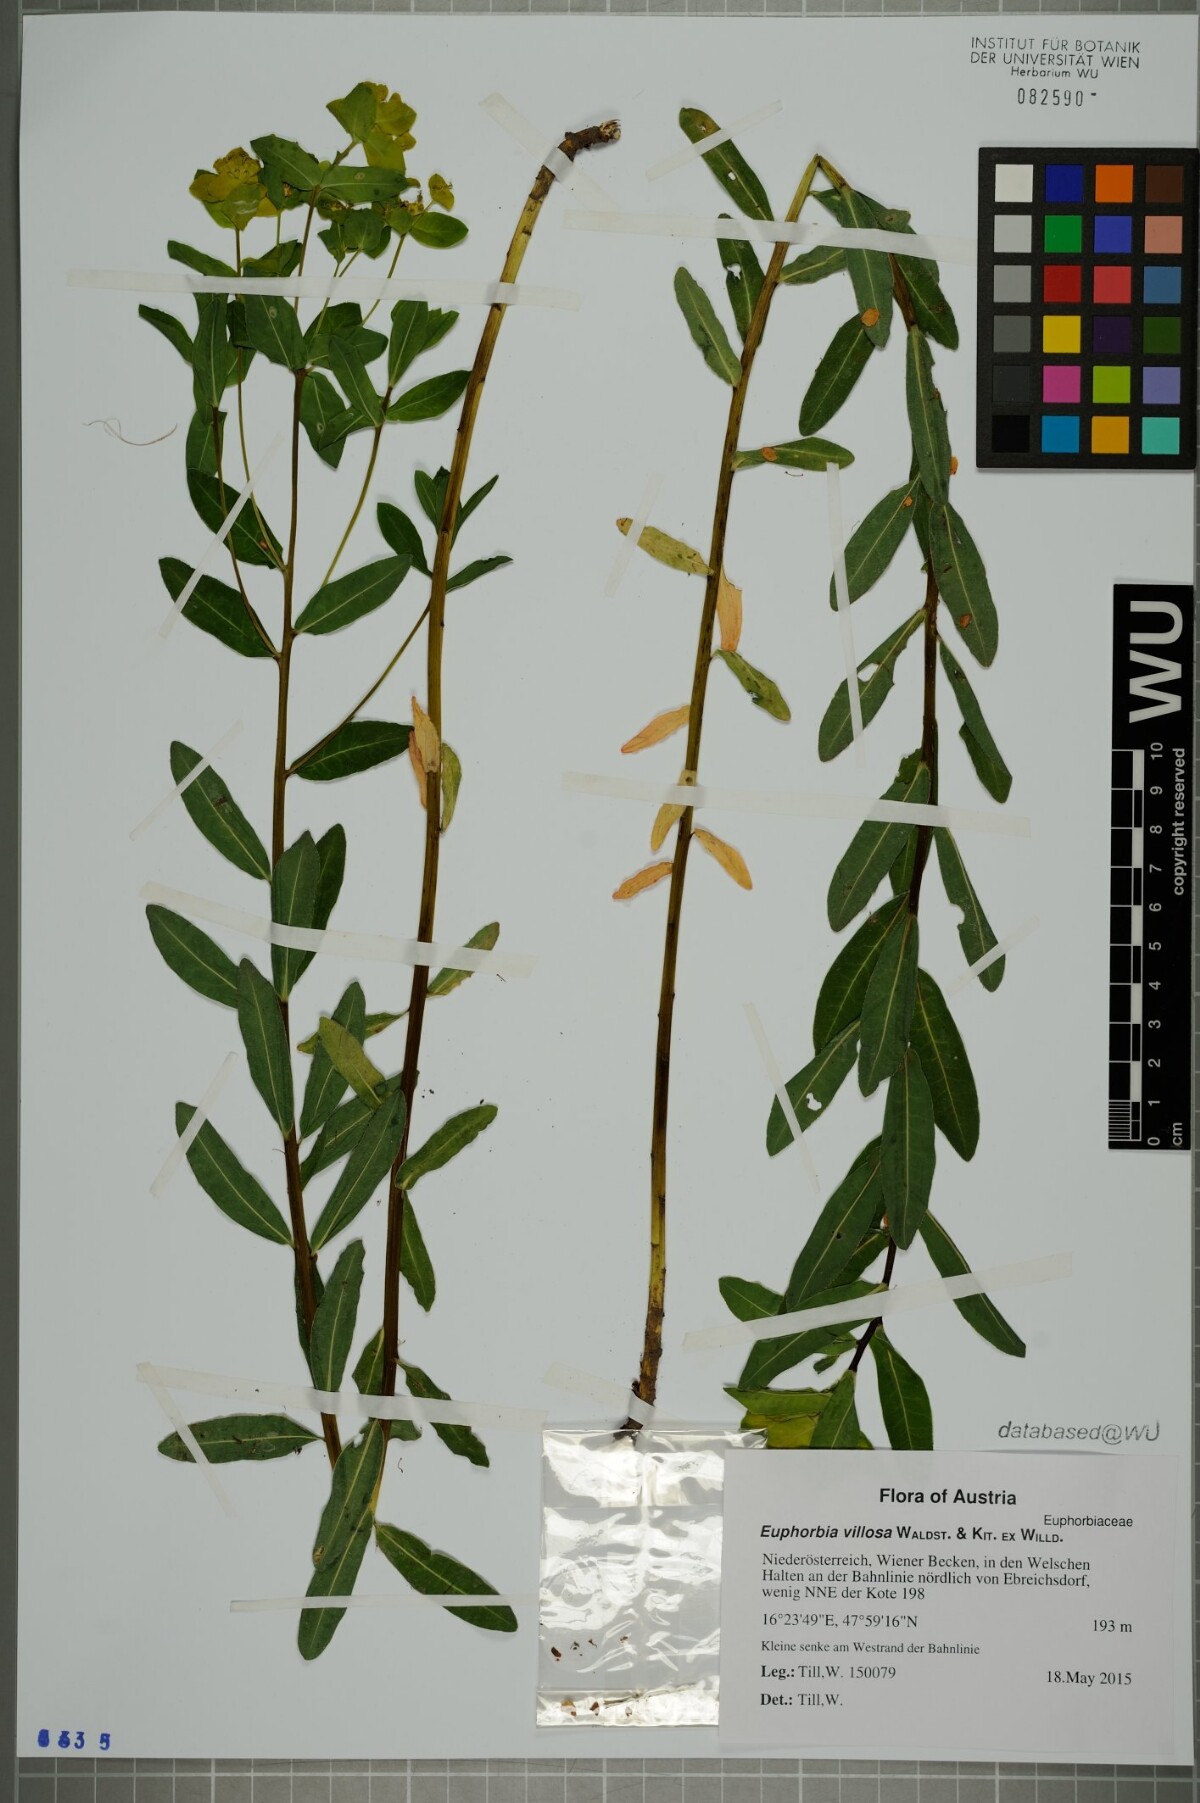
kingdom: Plantae
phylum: Tracheophyta
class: Magnoliopsida
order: Malpighiales
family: Euphorbiaceae
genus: Euphorbia
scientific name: Euphorbia illirica
